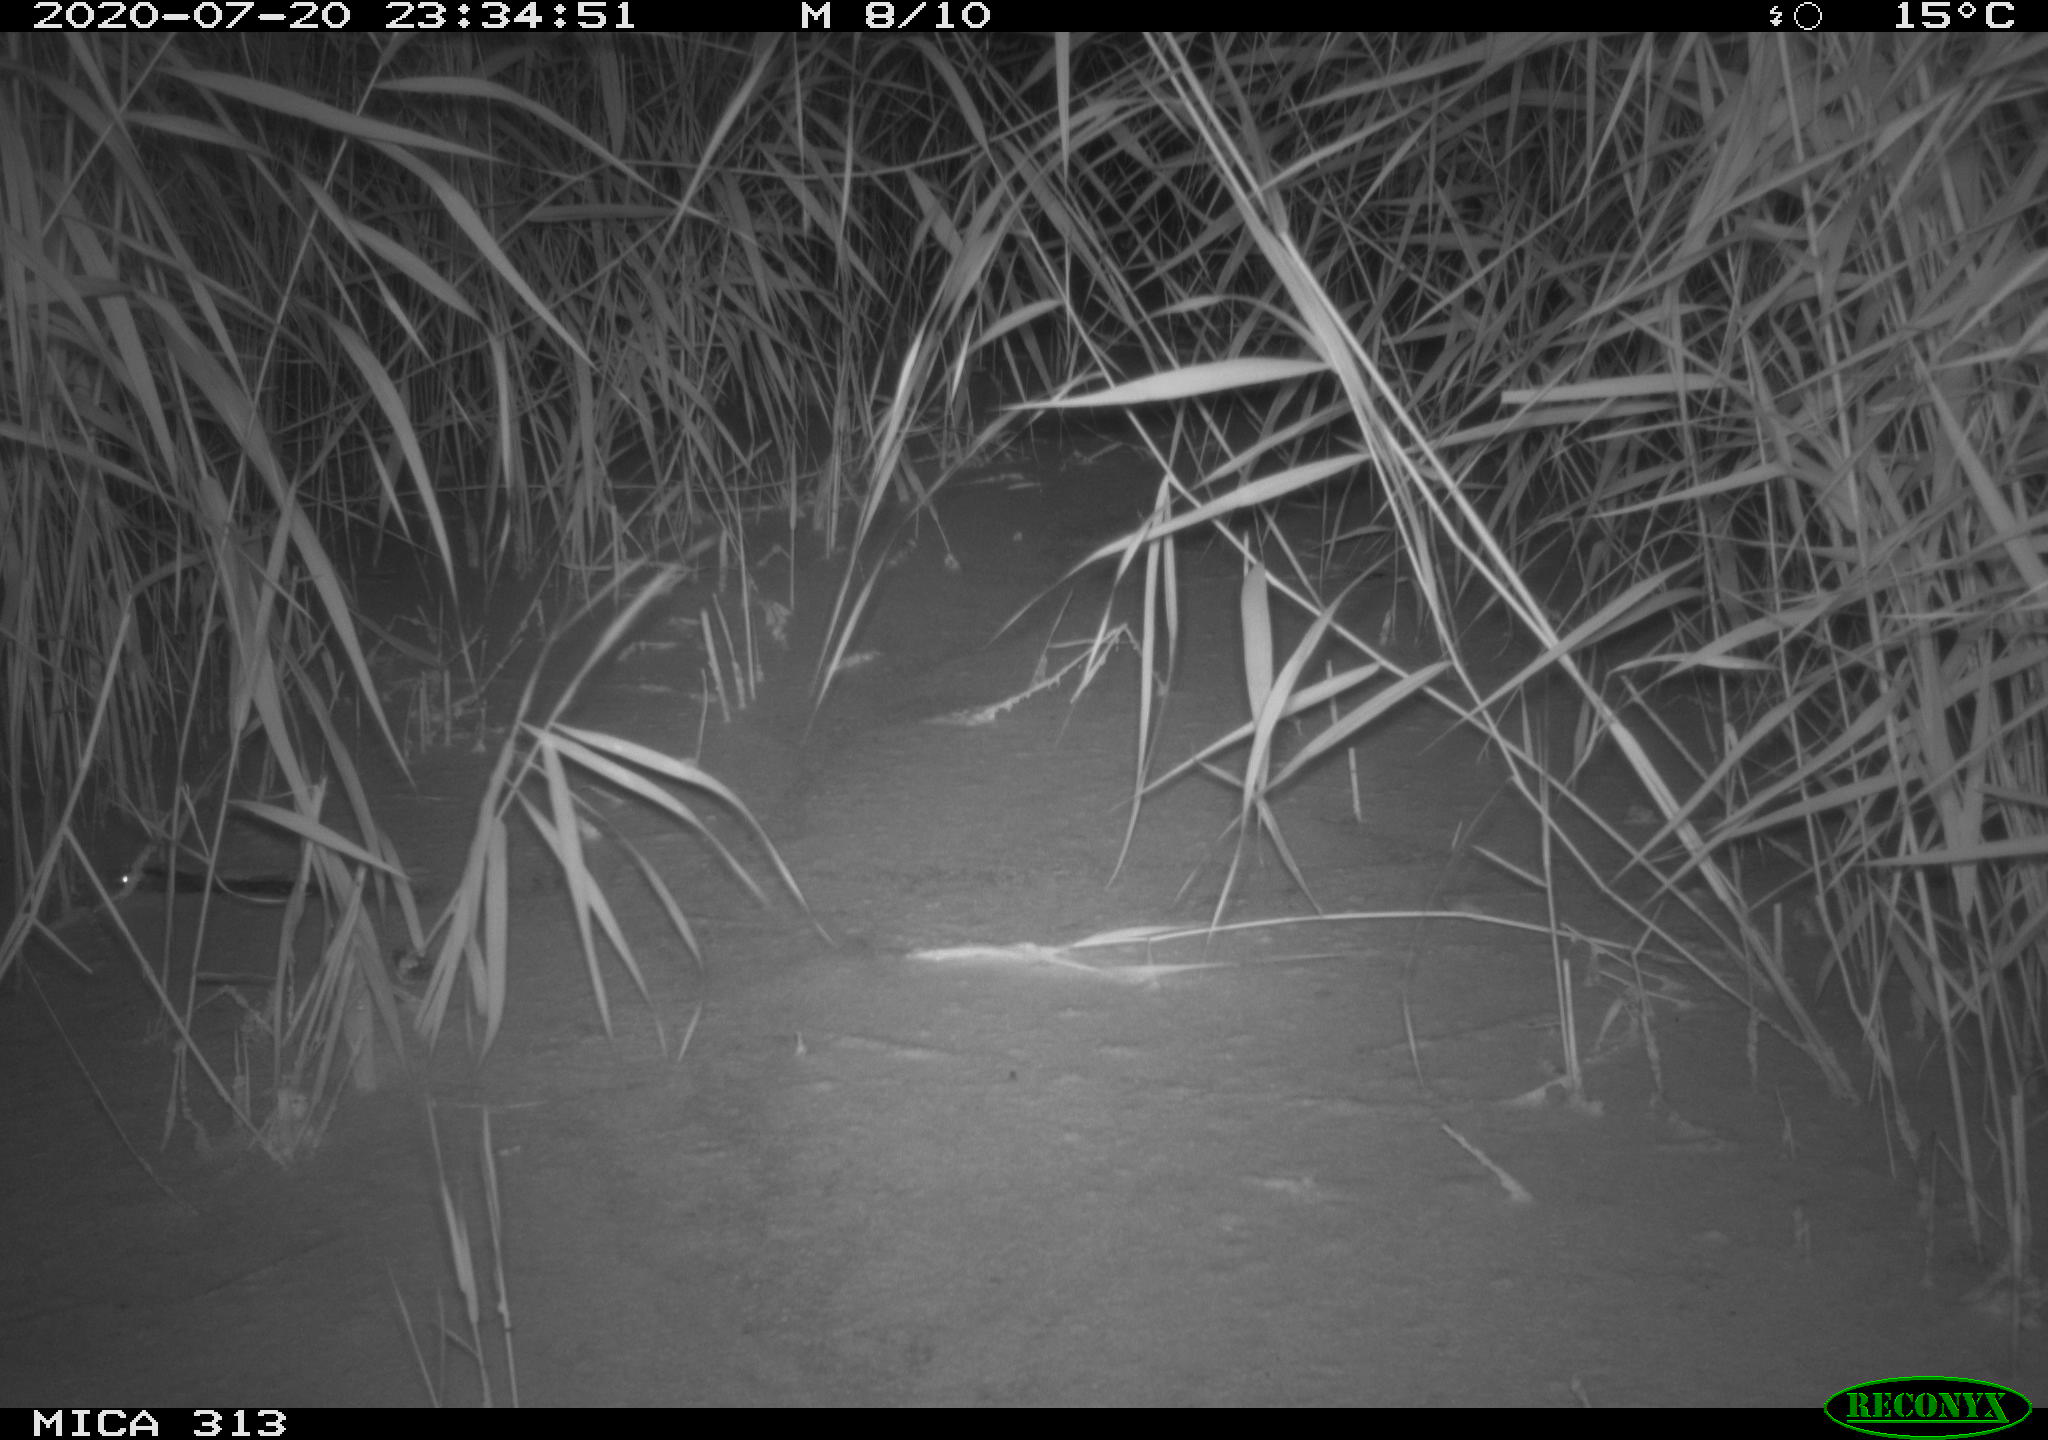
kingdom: Animalia
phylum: Chordata
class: Mammalia
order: Rodentia
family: Muridae
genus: Rattus
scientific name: Rattus norvegicus
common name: Brown rat
